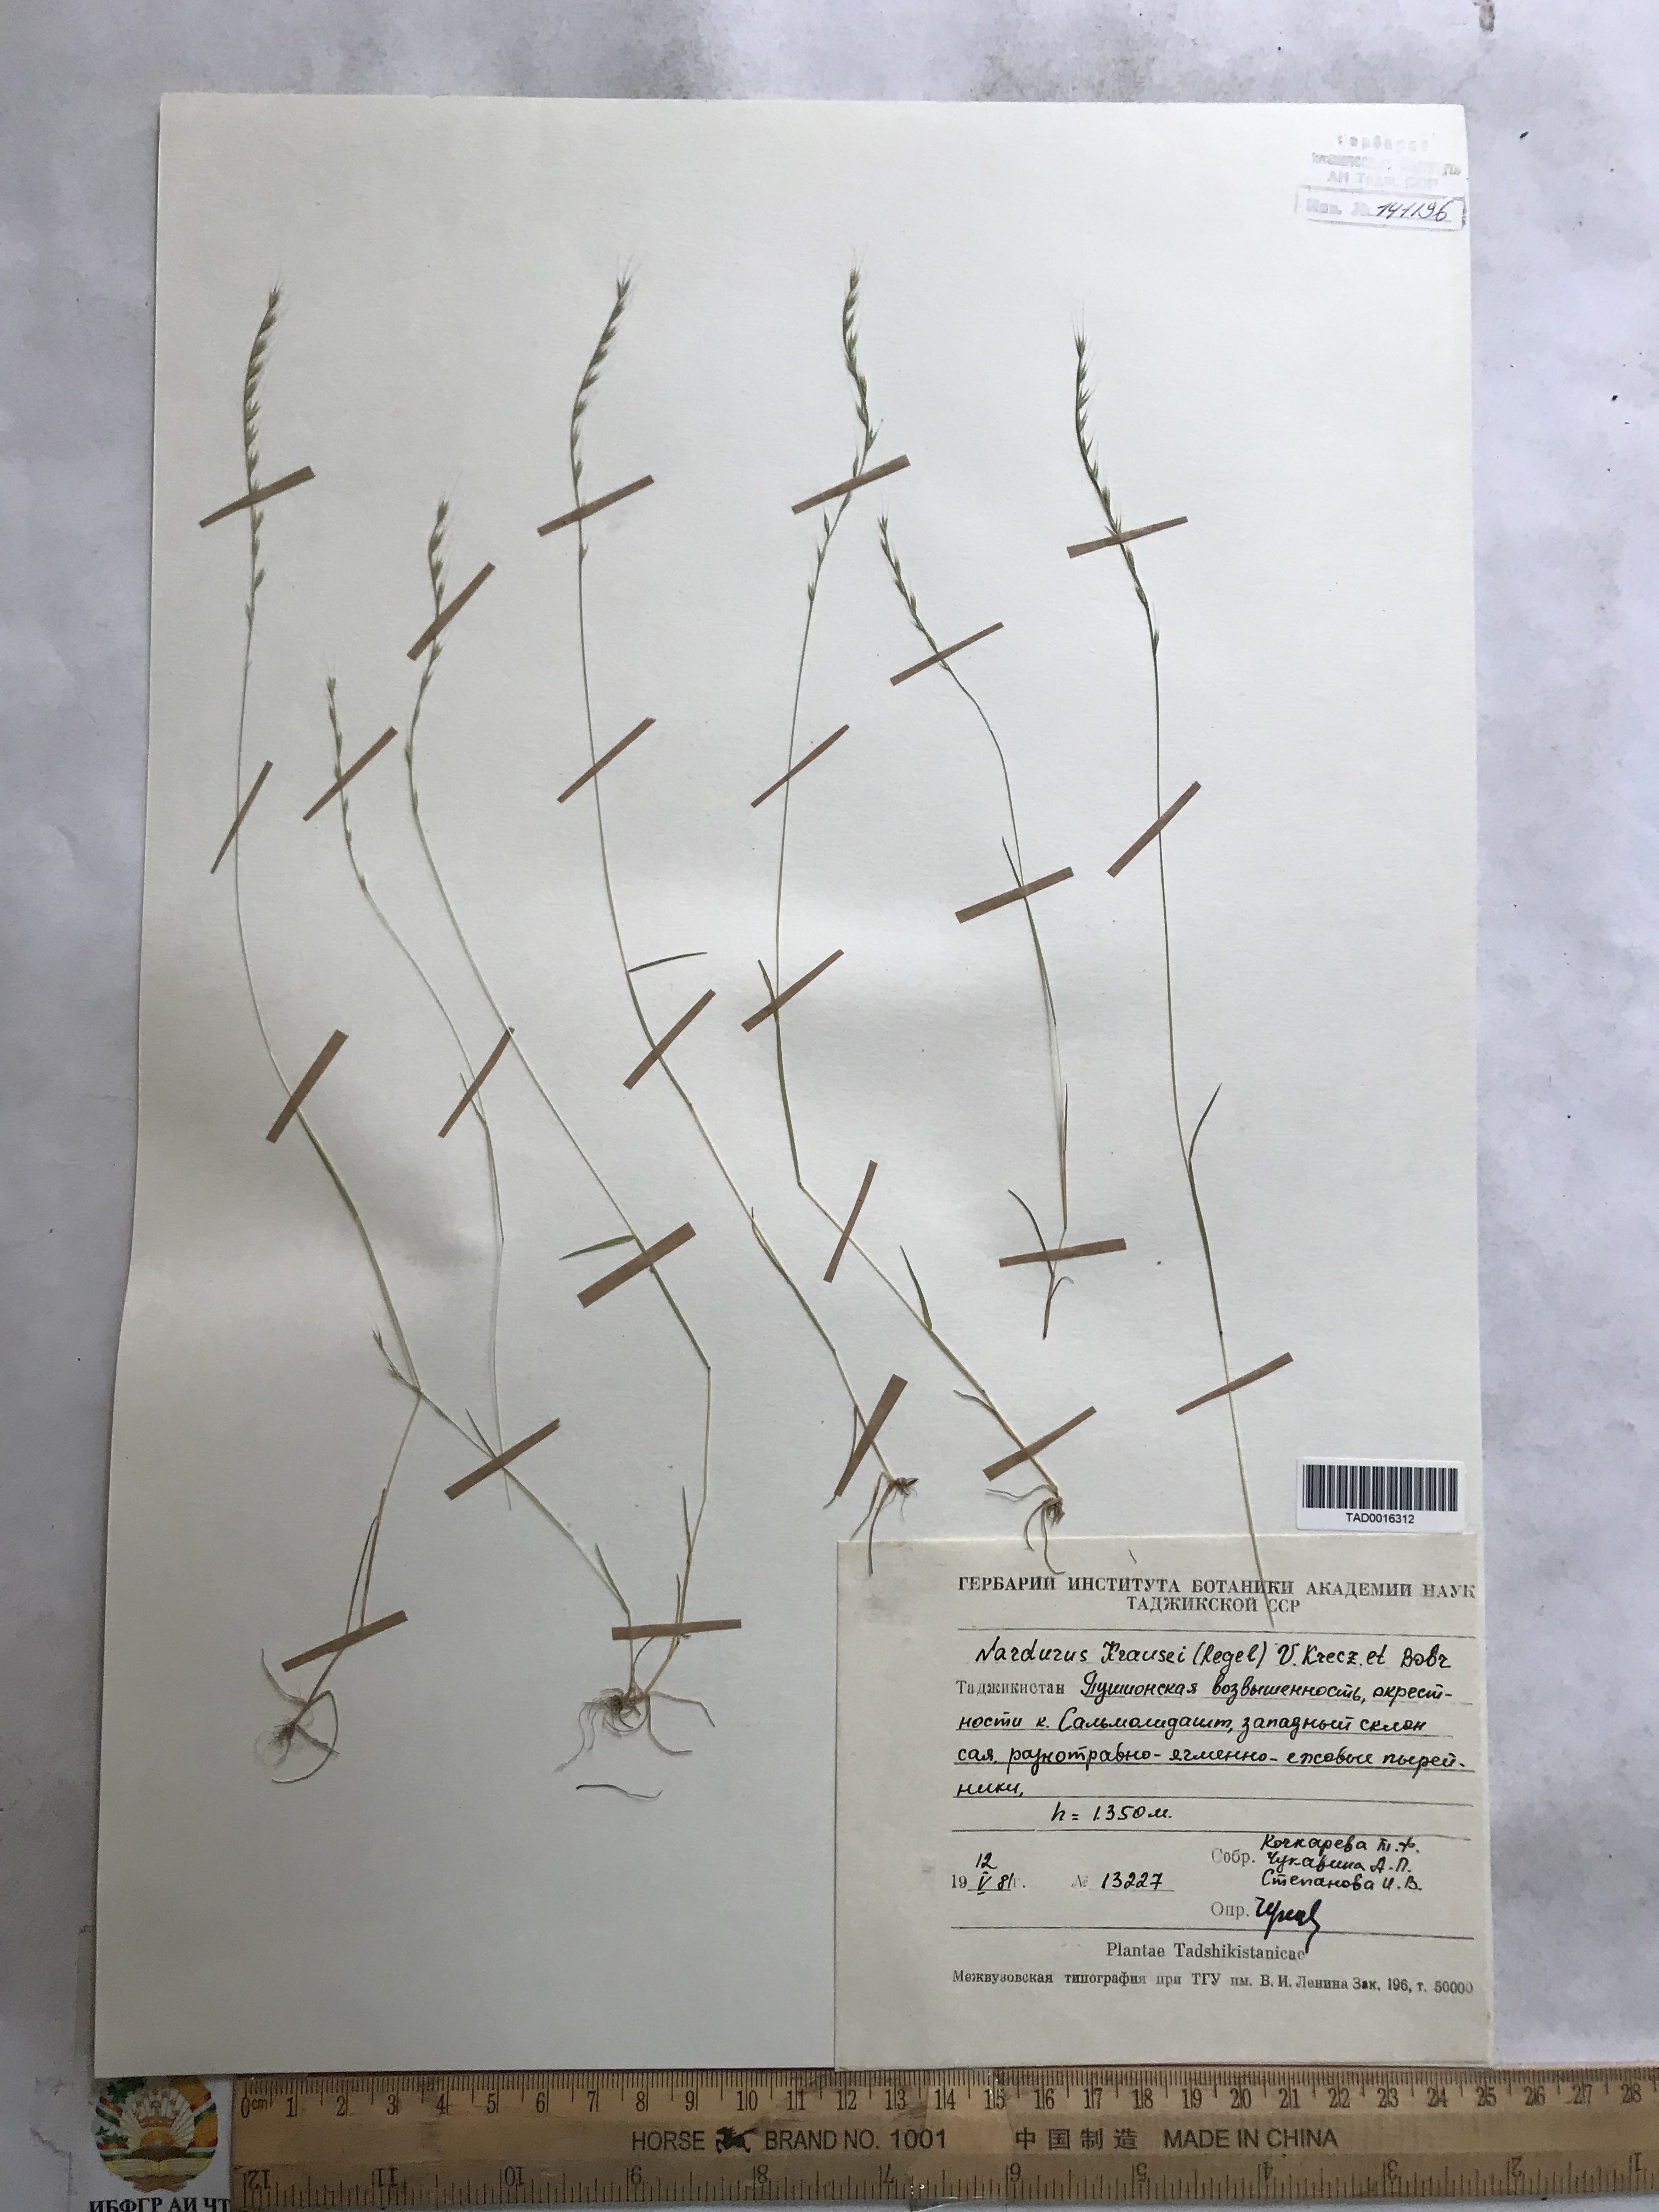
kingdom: Plantae
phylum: Tracheophyta
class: Liliopsida
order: Poales
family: Poaceae
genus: Festuca
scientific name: Festuca maritima
